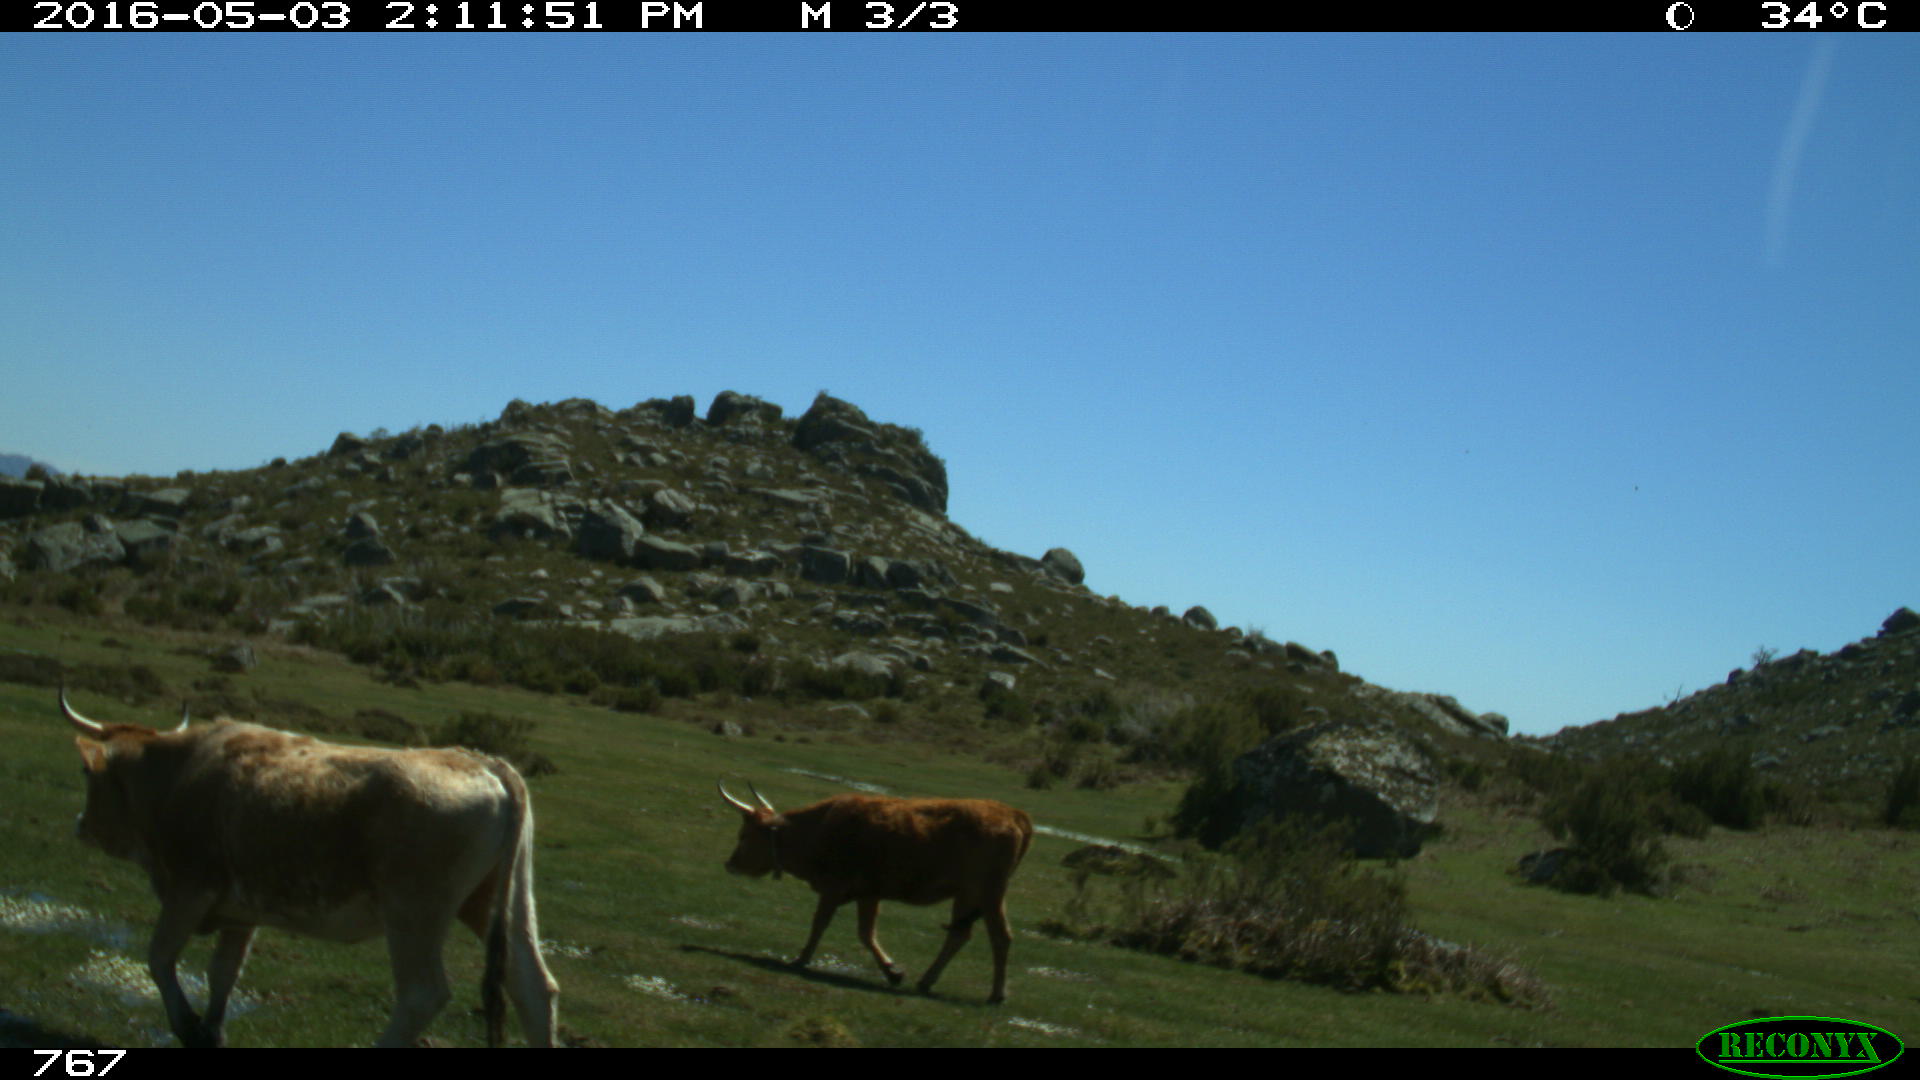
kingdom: Animalia
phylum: Chordata
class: Mammalia
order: Artiodactyla
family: Bovidae
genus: Bos
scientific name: Bos taurus
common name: Domesticated cattle
